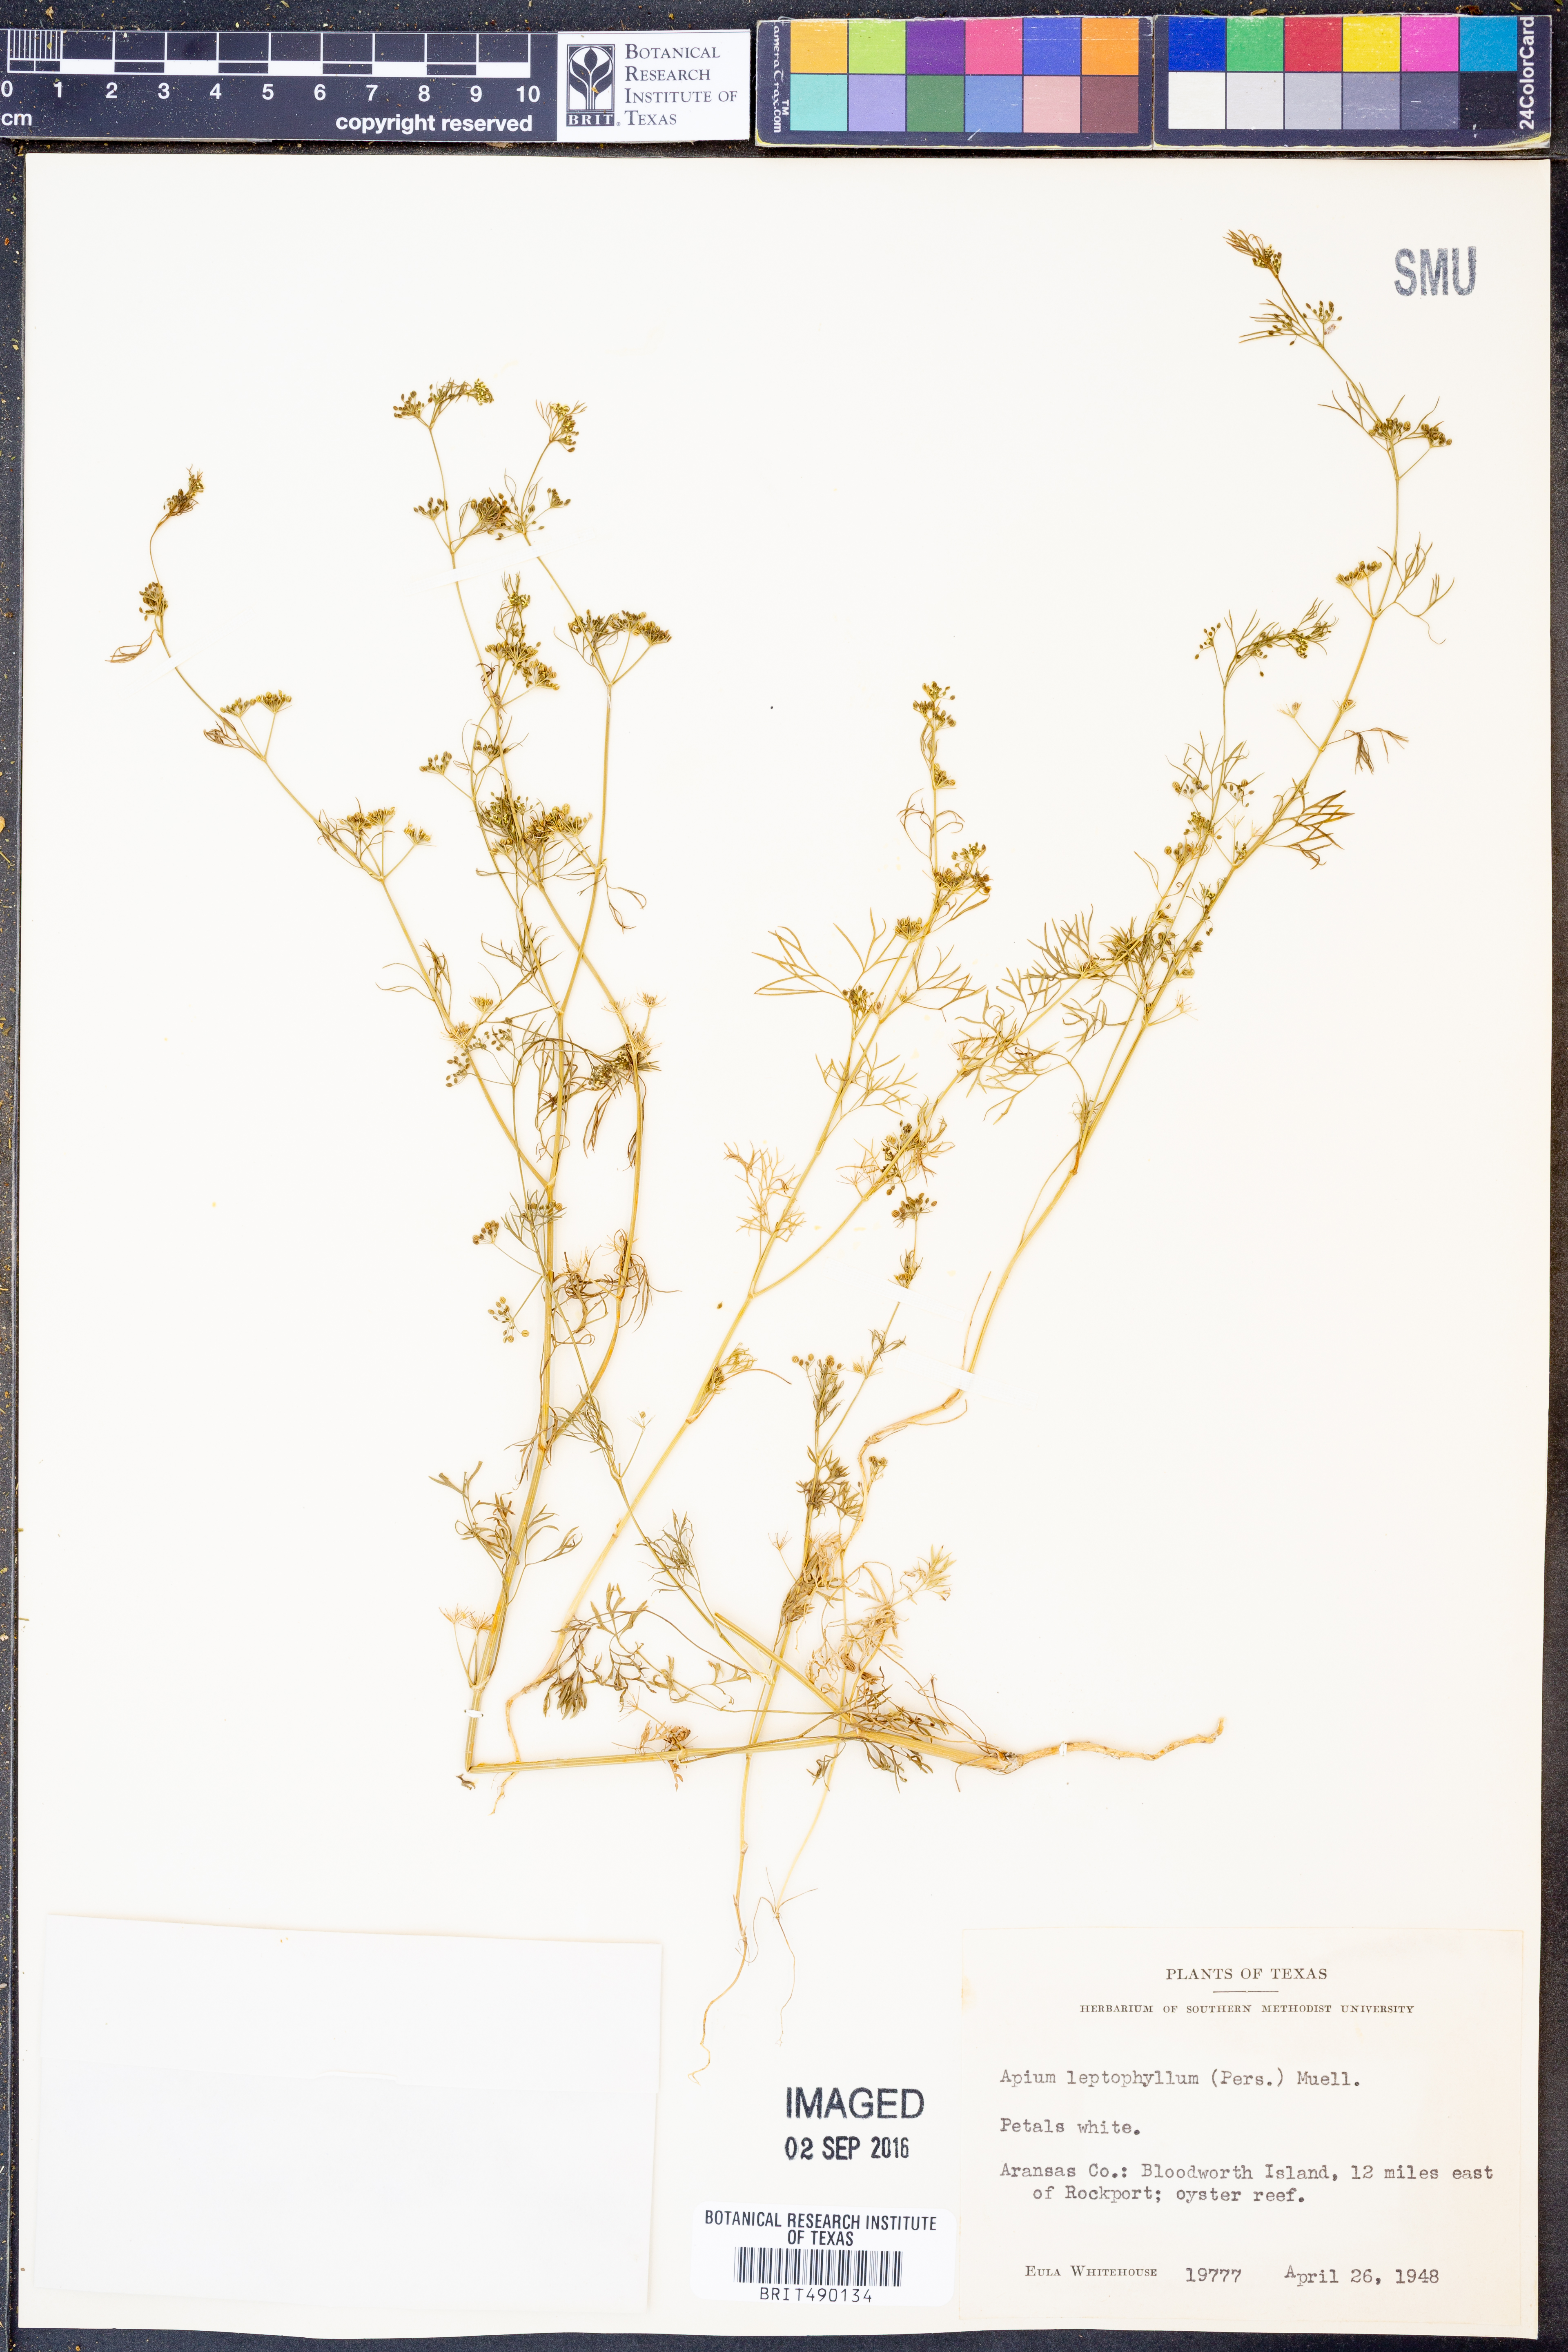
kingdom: Plantae
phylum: Tracheophyta
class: Magnoliopsida
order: Apiales
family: Apiaceae
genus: Cyclospermum
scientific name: Cyclospermum leptophyllum
